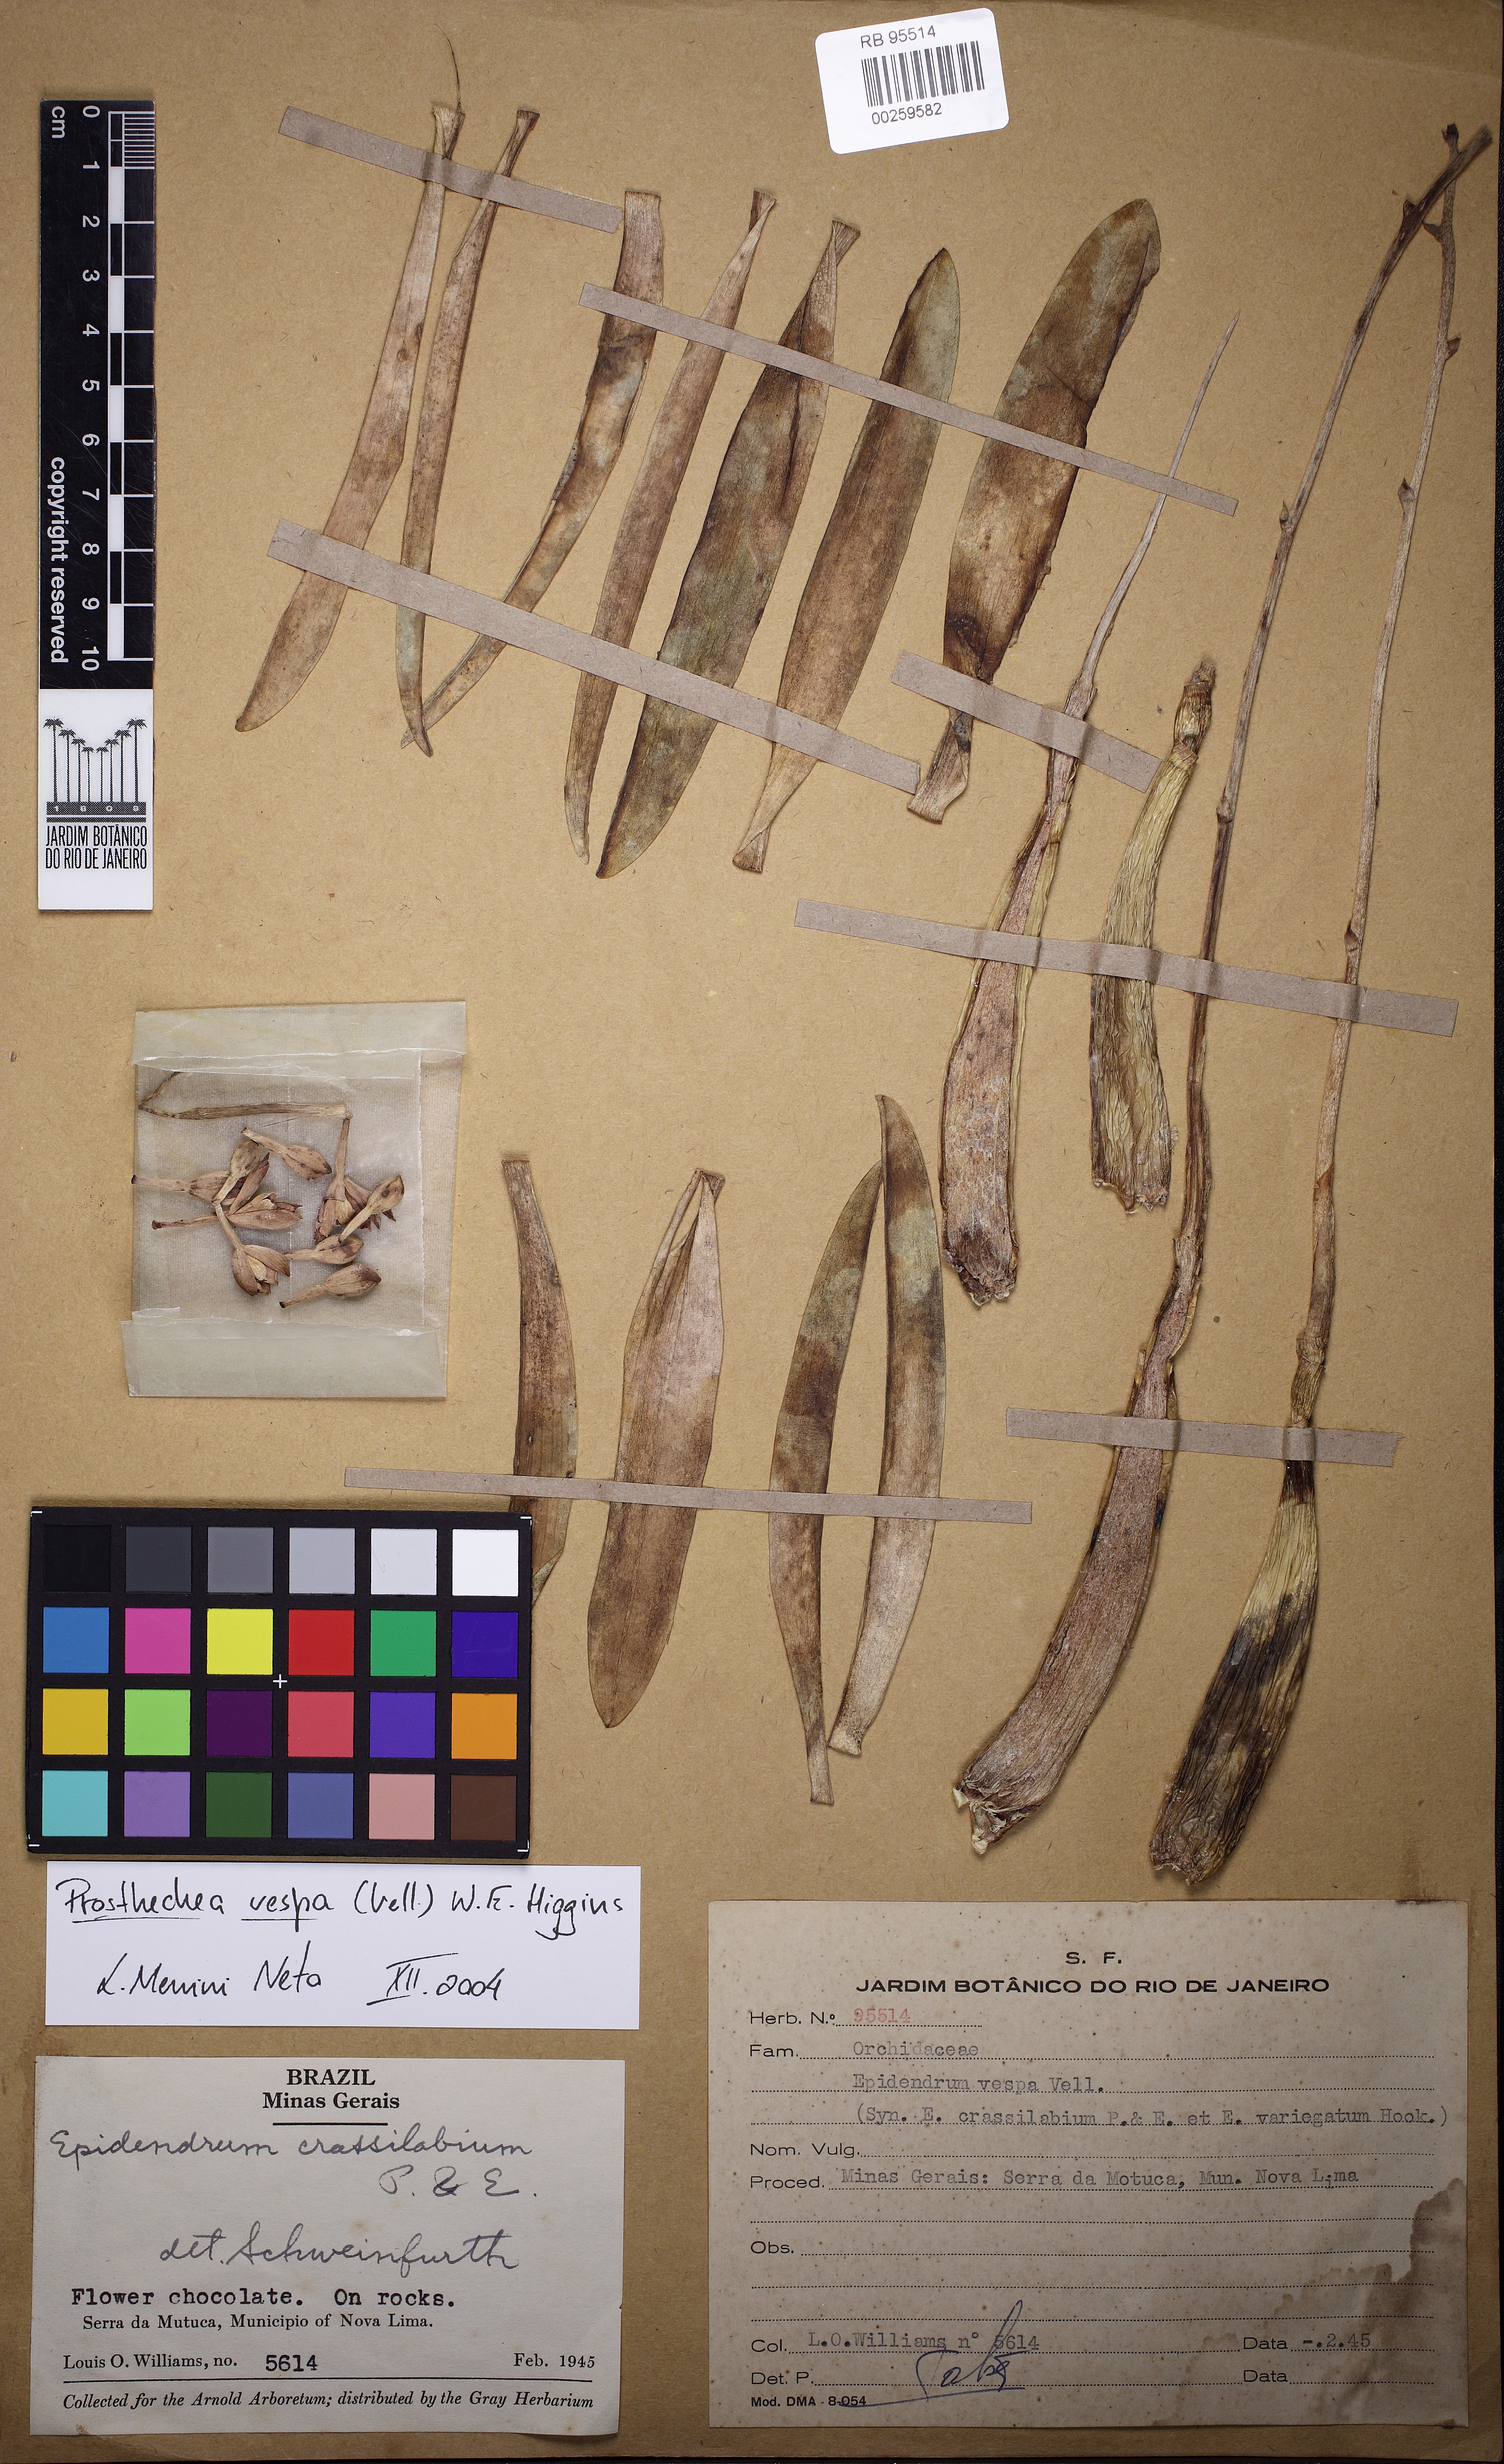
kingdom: Plantae
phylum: Tracheophyta
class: Liliopsida
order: Asparagales
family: Orchidaceae
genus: Prosthechea
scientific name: Prosthechea pachysepala
